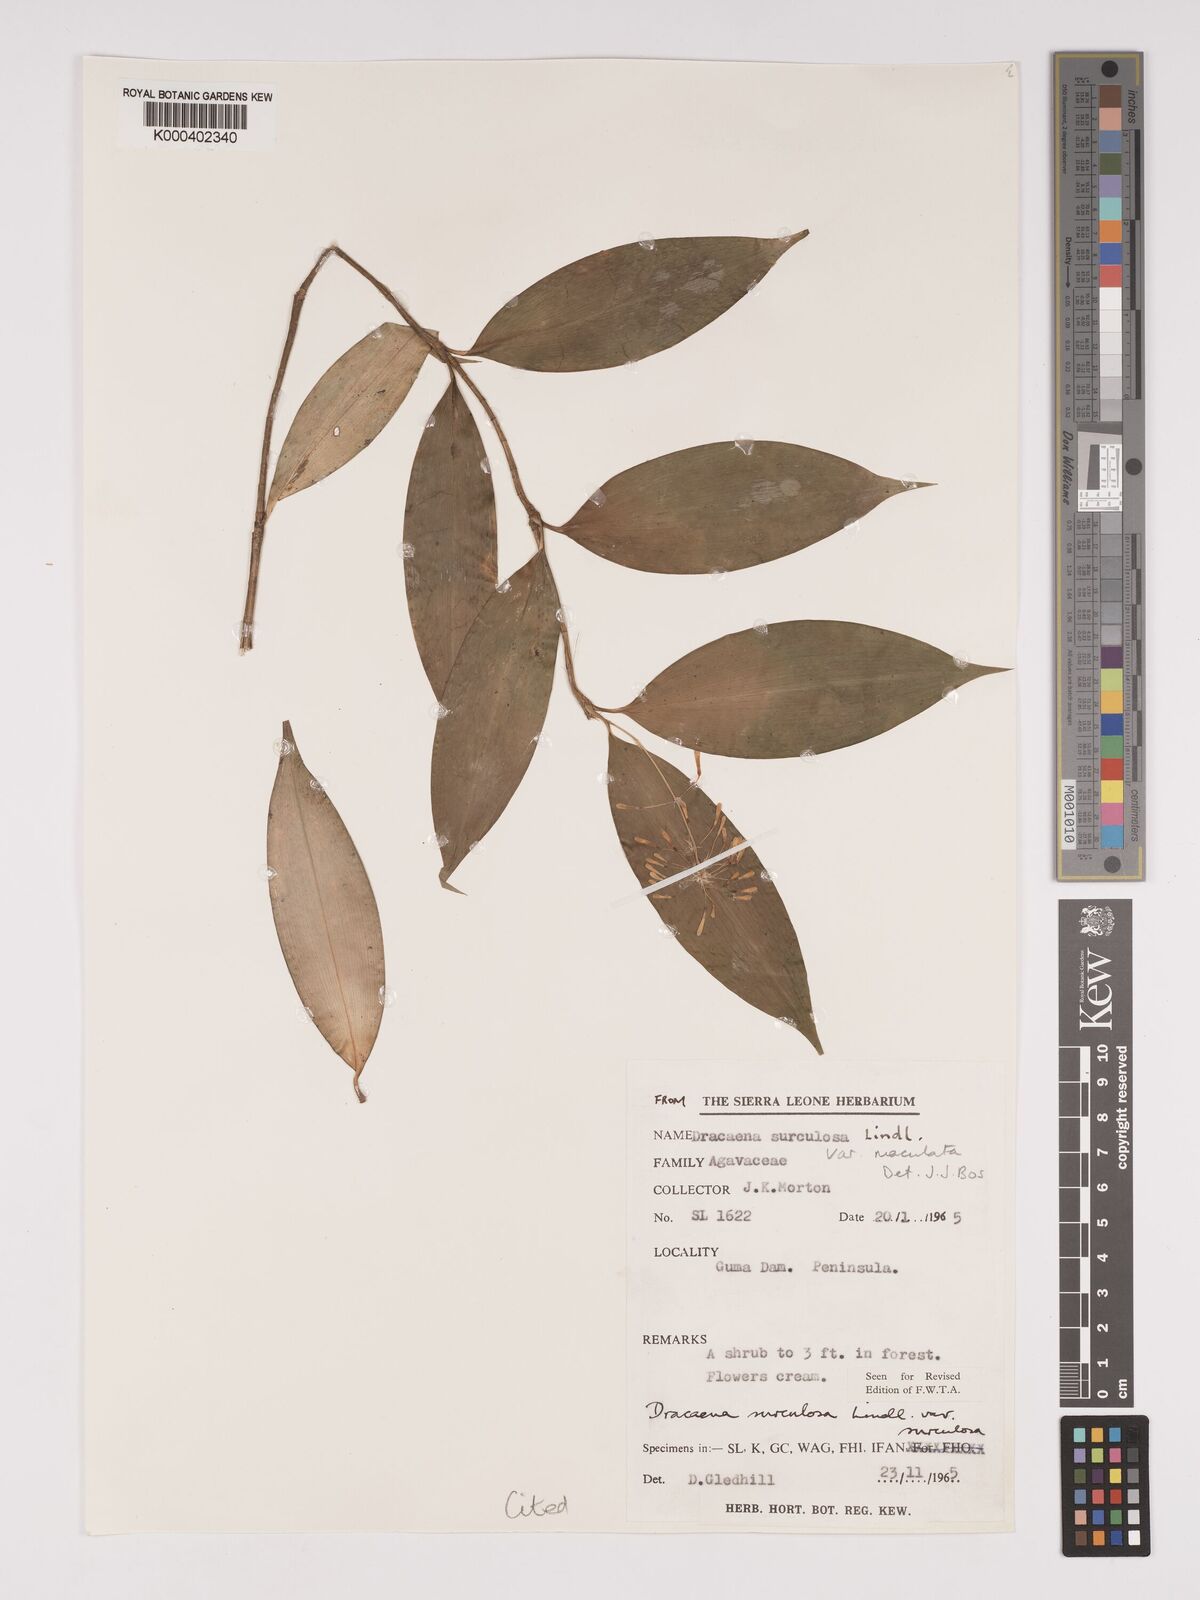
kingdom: Plantae
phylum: Tracheophyta
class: Liliopsida
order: Asparagales
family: Asparagaceae
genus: Dracaena
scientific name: Dracaena surculosa
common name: Spotted dracaena
